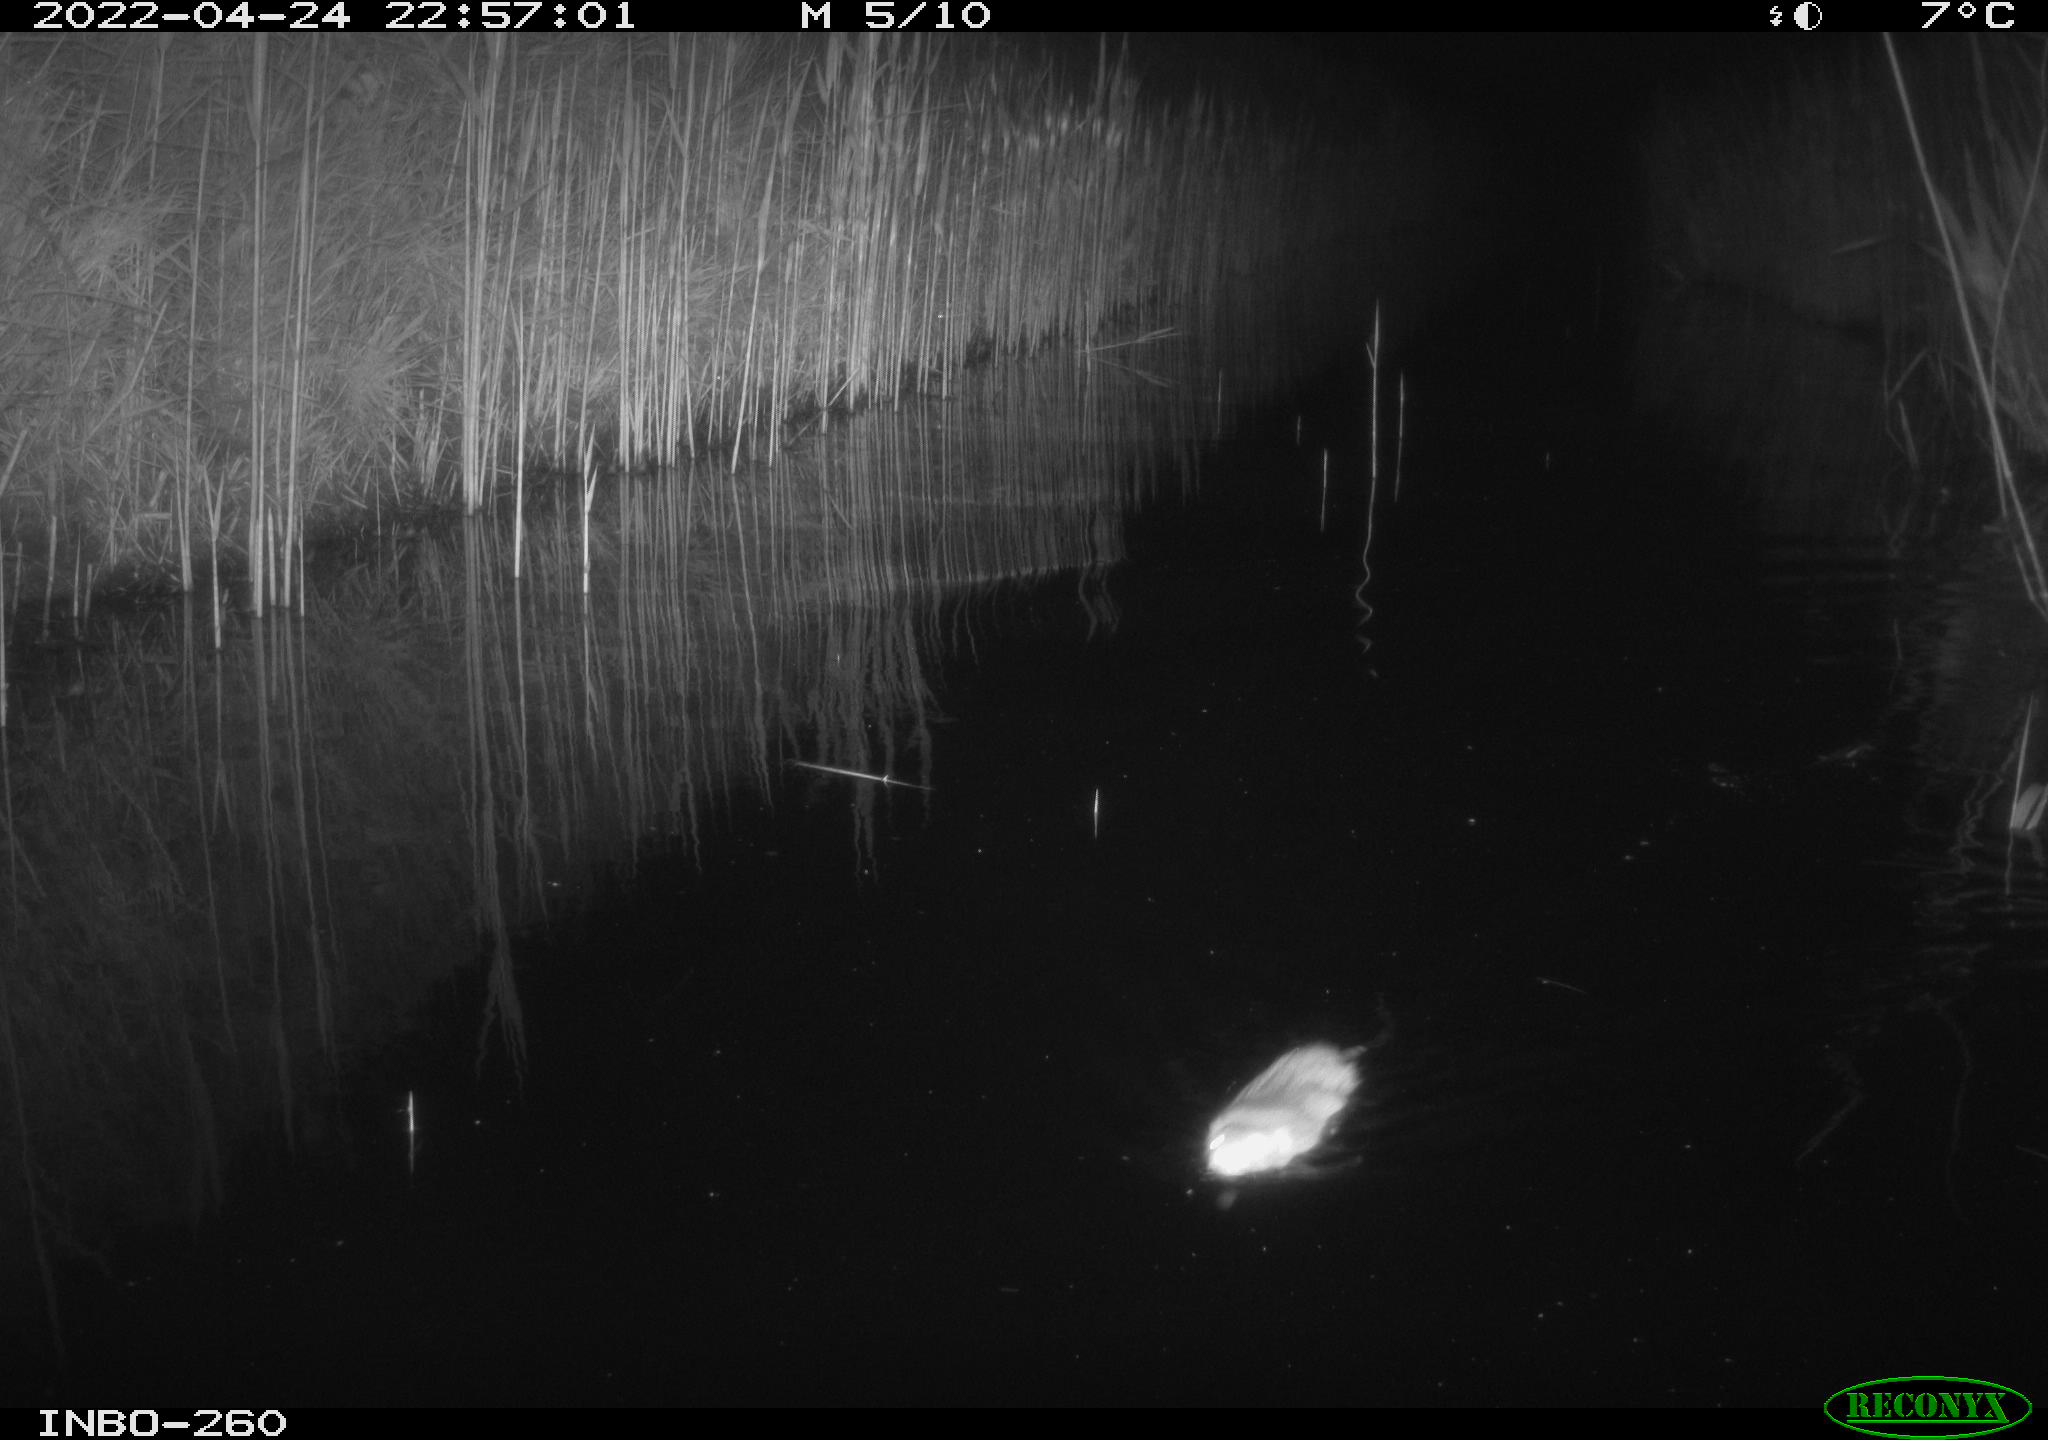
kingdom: Animalia
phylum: Chordata
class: Mammalia
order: Rodentia
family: Cricetidae
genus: Ondatra
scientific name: Ondatra zibethicus
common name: Muskrat
